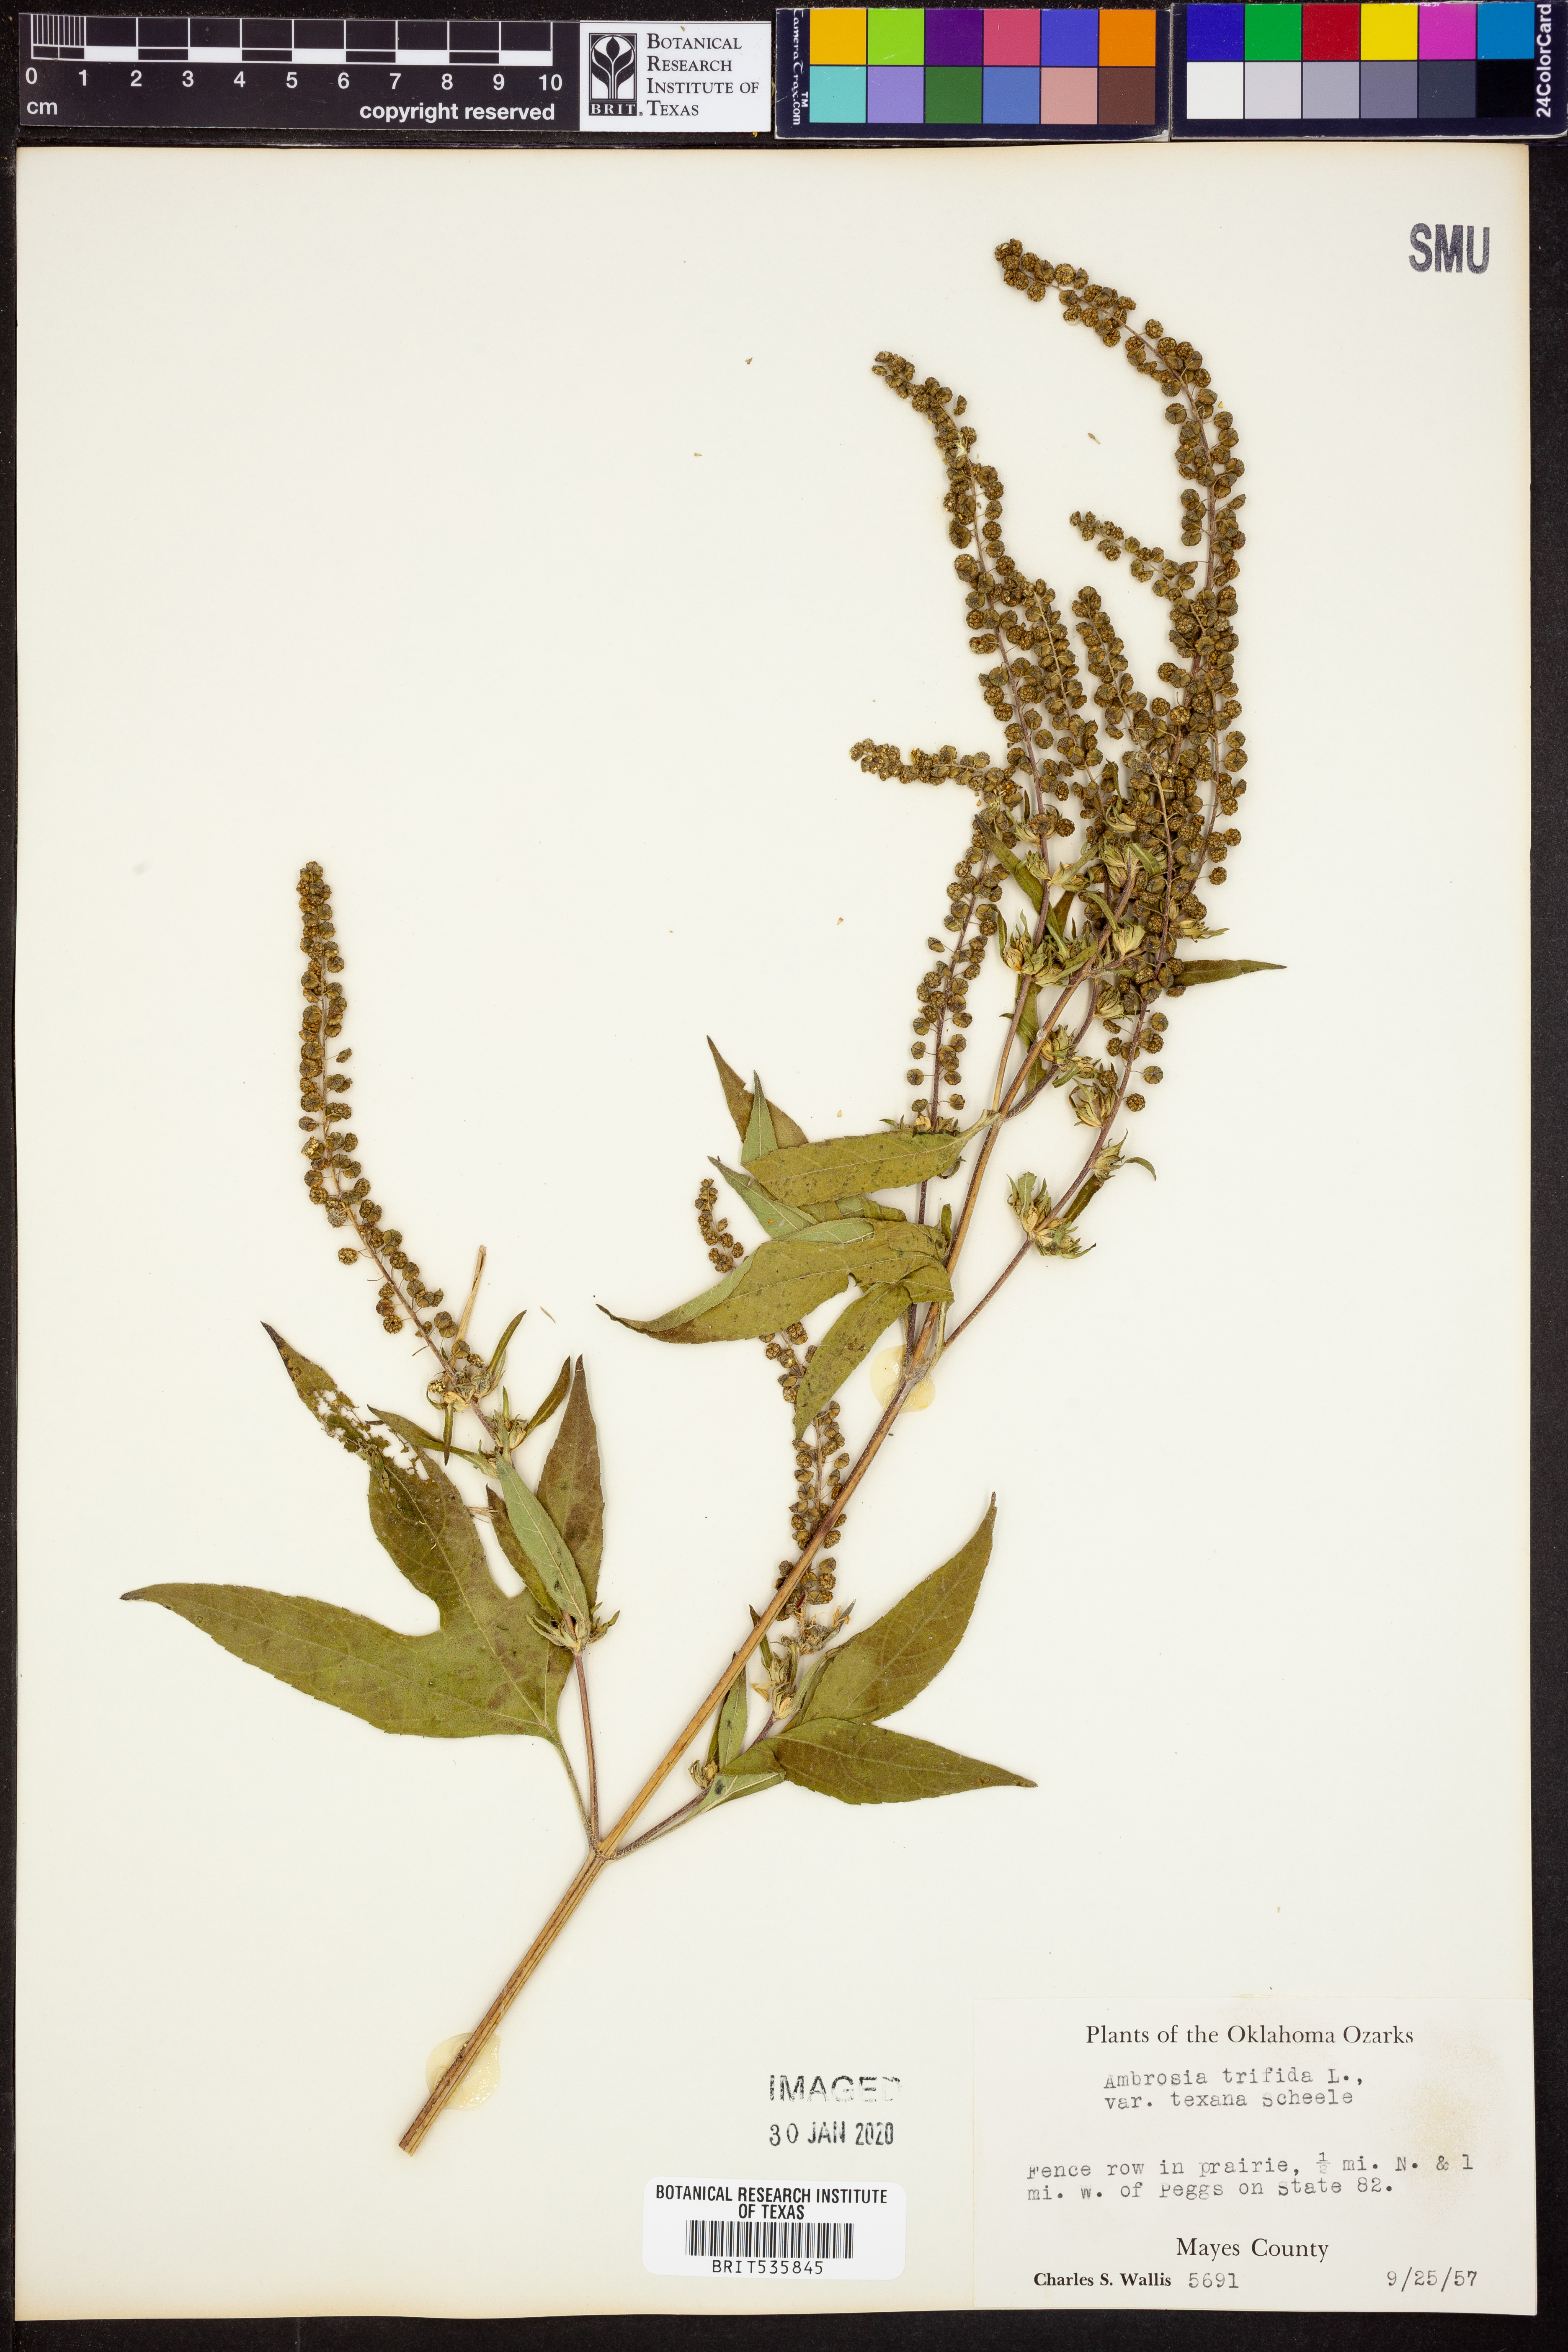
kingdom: Plantae
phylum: Tracheophyta
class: Magnoliopsida
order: Asterales
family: Asteraceae
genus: Ambrosia
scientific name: Ambrosia trifida
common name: Giant ragweed
